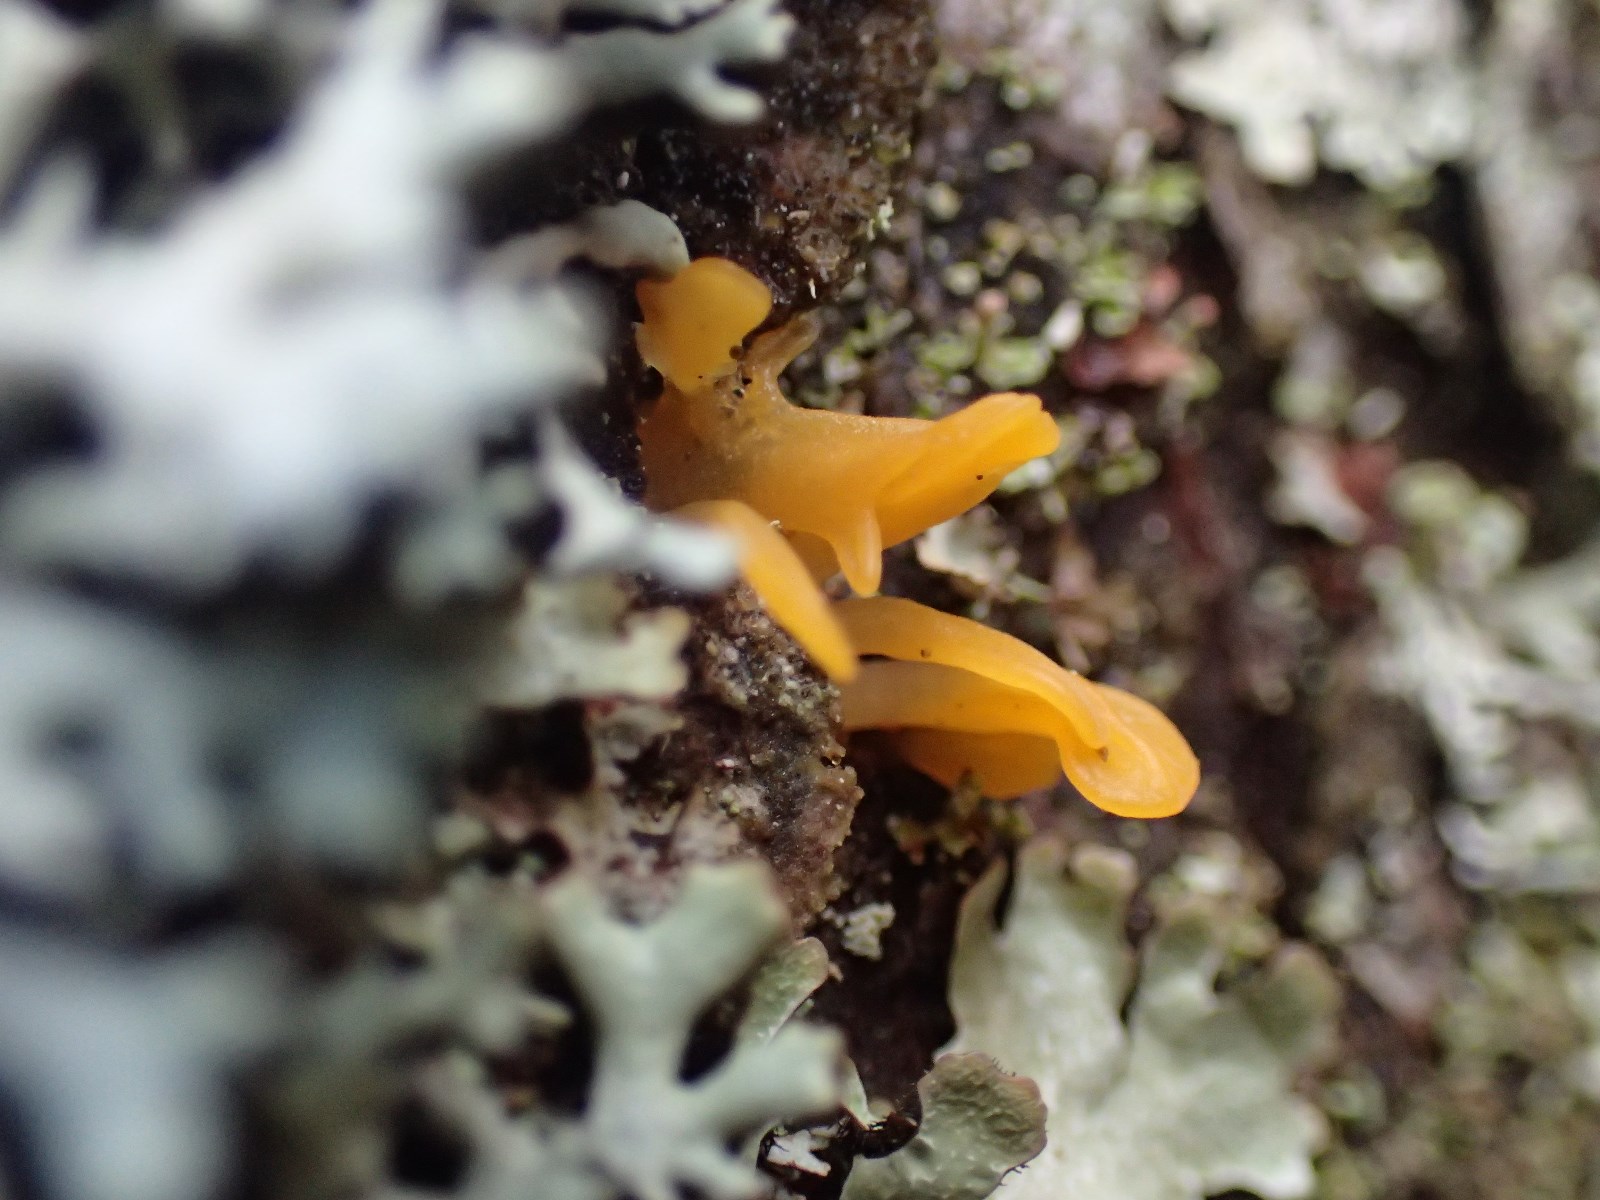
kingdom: Fungi
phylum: Basidiomycota
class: Dacrymycetes
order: Dacrymycetales
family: Dacrymycetaceae
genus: Calocera
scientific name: Calocera furcata
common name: fyrre-guldgaffel
